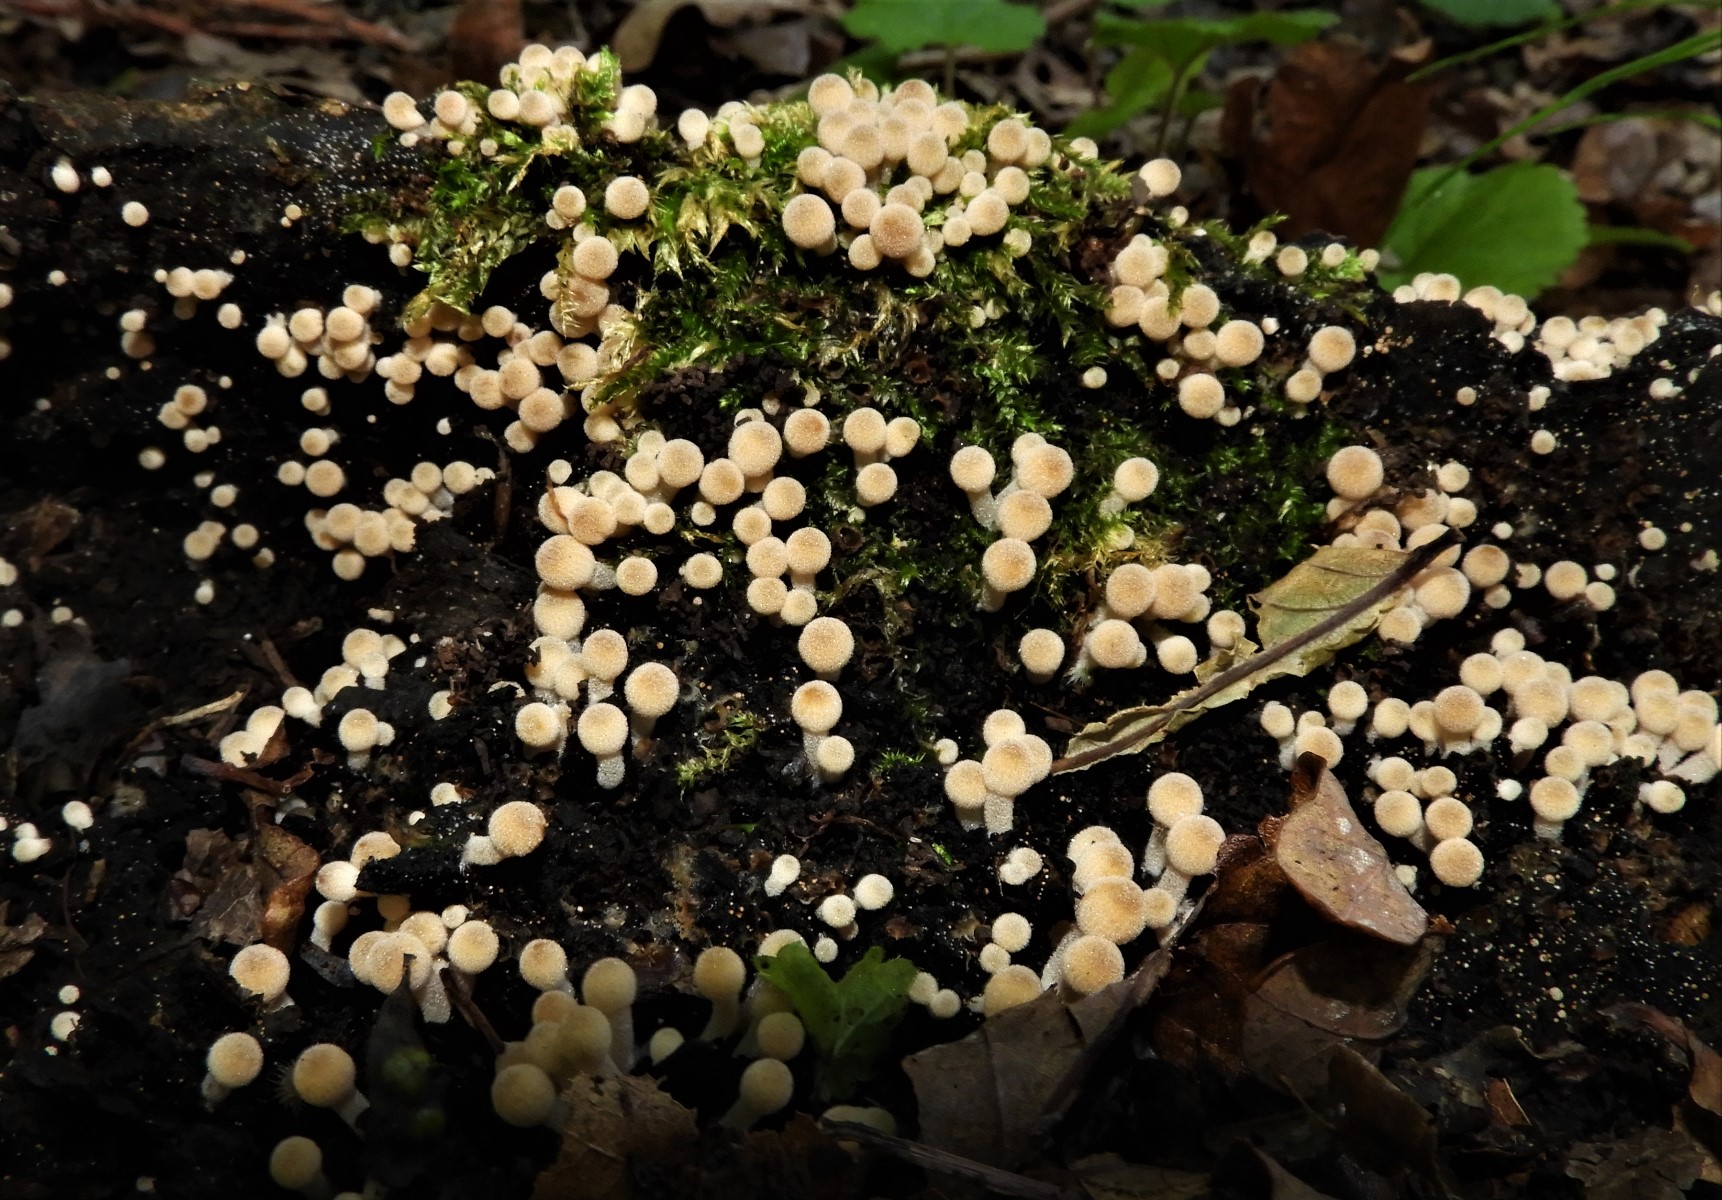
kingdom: Fungi
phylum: Basidiomycota
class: Agaricomycetes
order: Agaricales
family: Psathyrellaceae
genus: Coprinellus
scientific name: Coprinellus disseminatus
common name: bredsået blækhat
